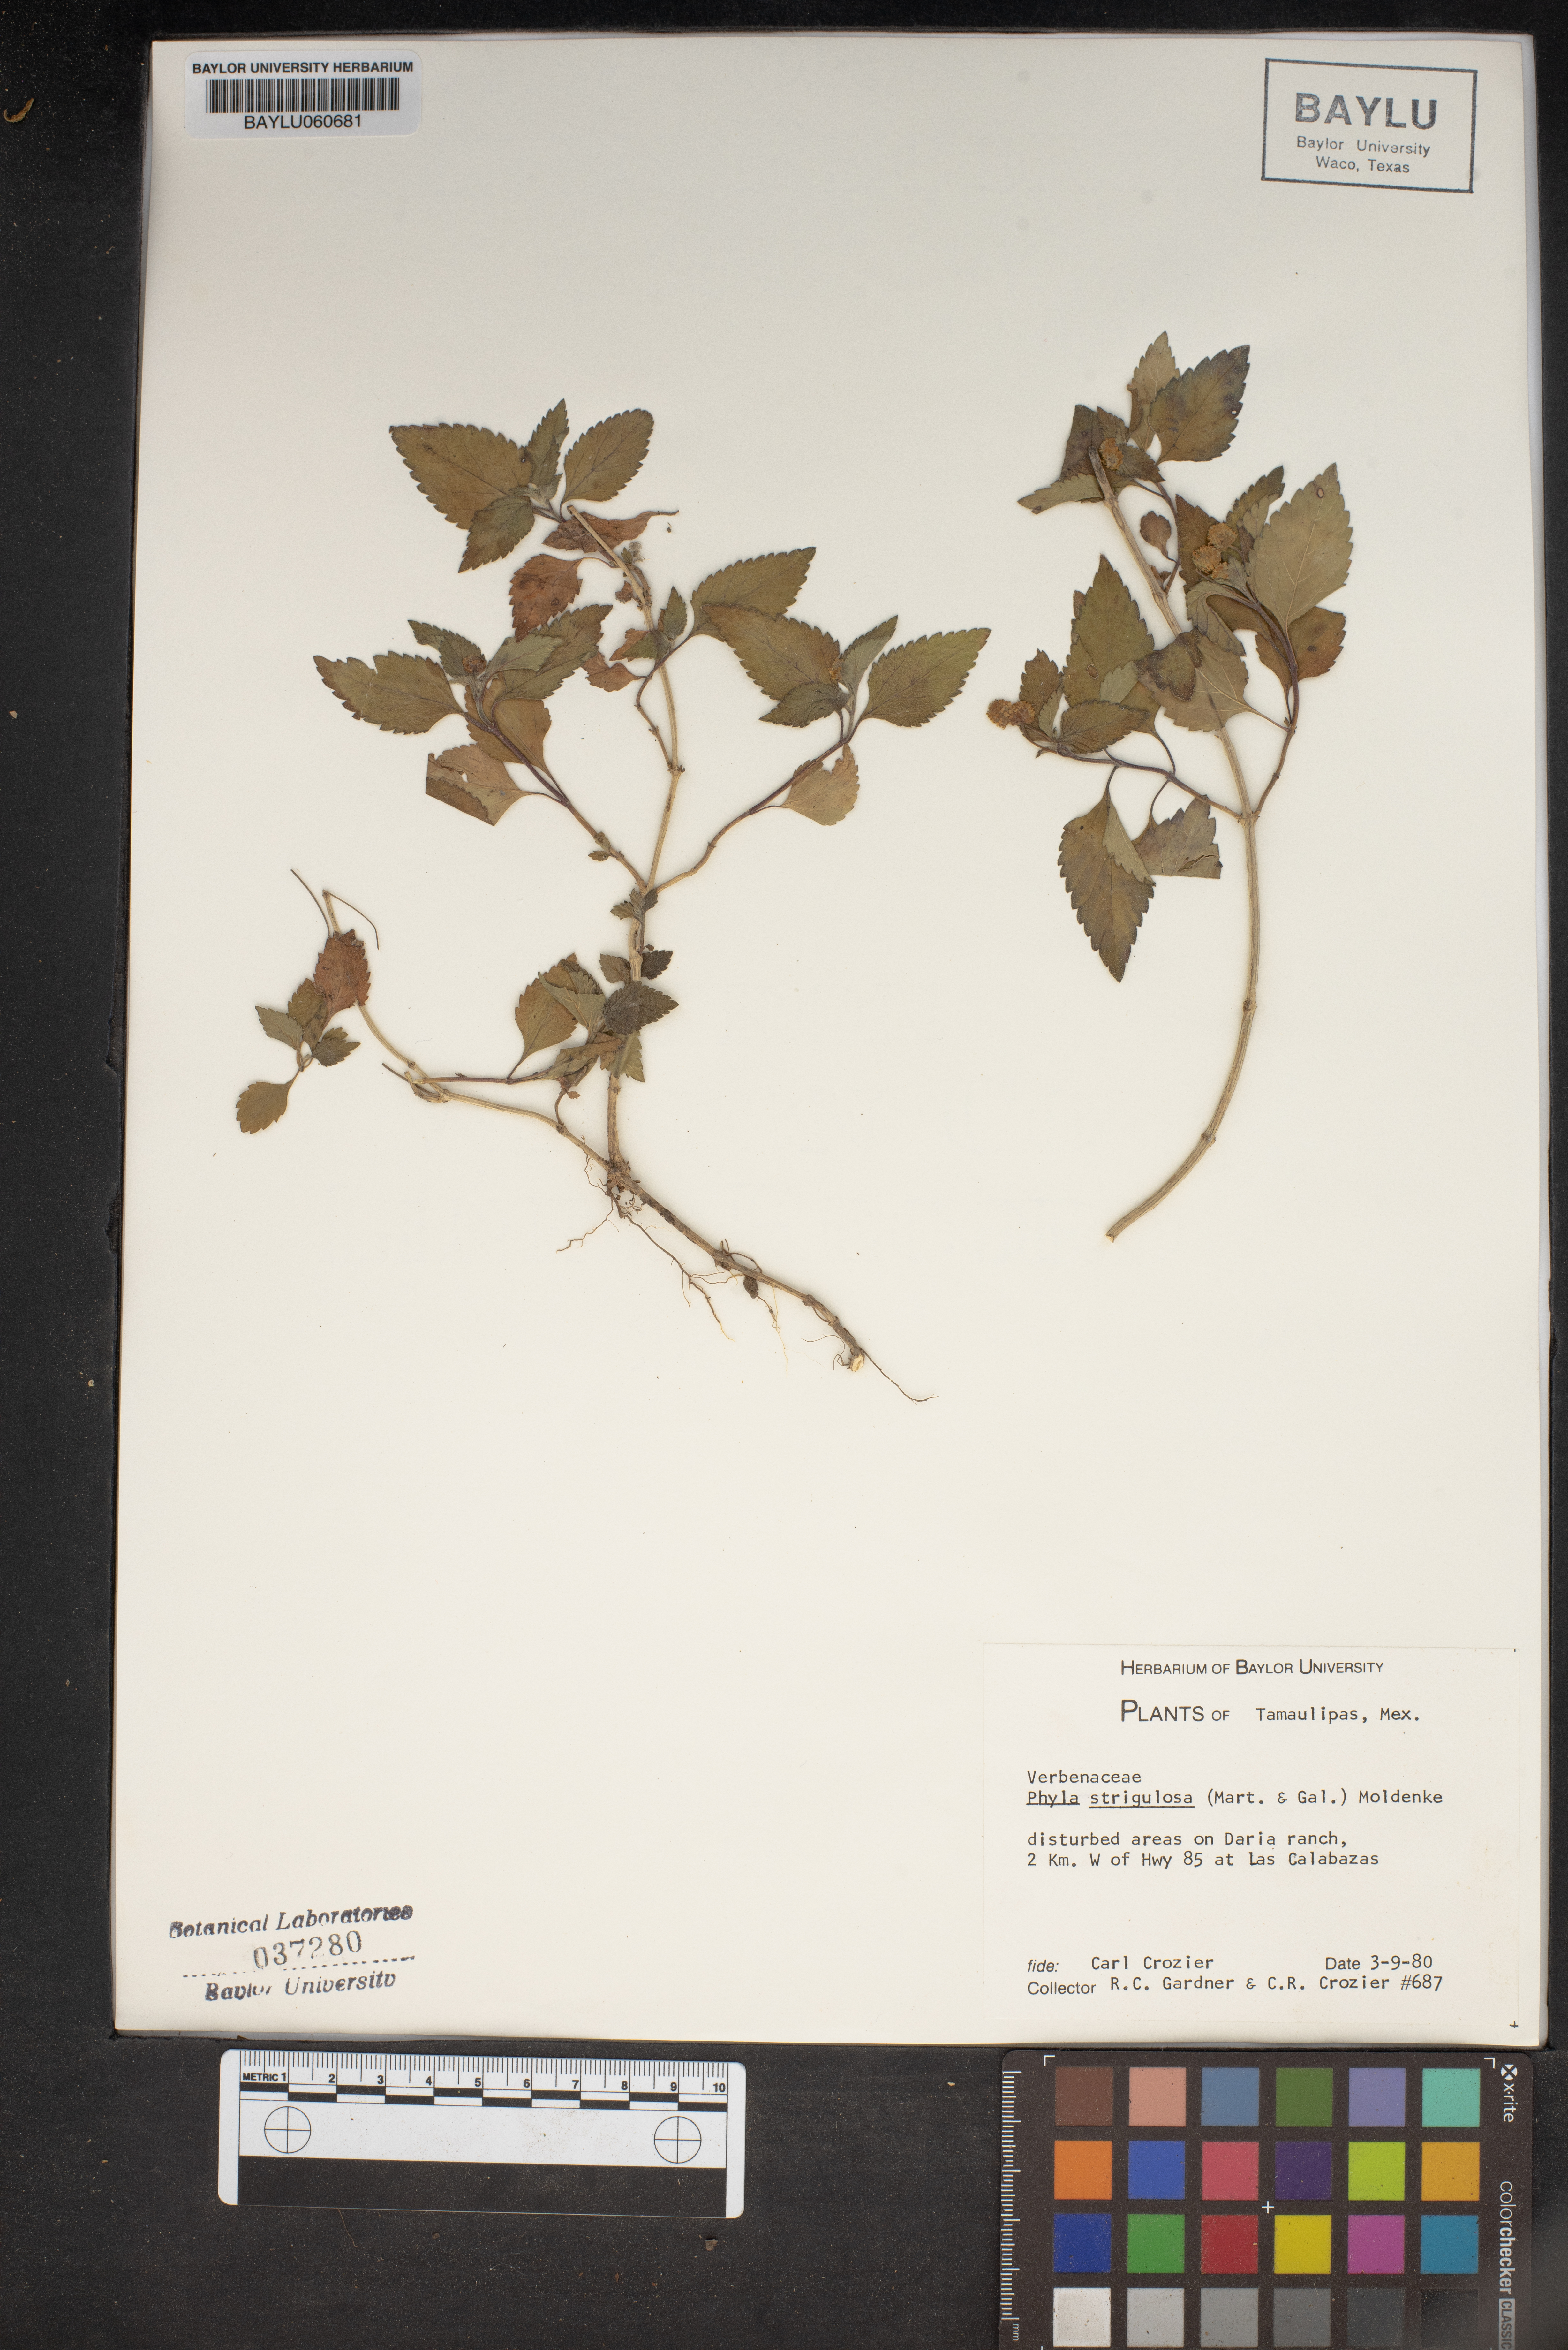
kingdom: Plantae
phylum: Tracheophyta
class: Magnoliopsida
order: Lamiales
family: Verbenaceae
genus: Phyla
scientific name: Phyla nodiflora
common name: Frogfruit
